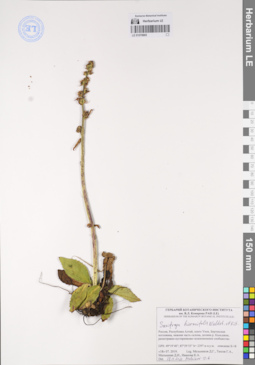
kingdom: Plantae
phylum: Tracheophyta
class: Magnoliopsida
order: Saxifragales
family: Saxifragaceae
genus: Micranthes
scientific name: Micranthes hieraciifolia
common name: Hawkweed-leaved saxifrage
